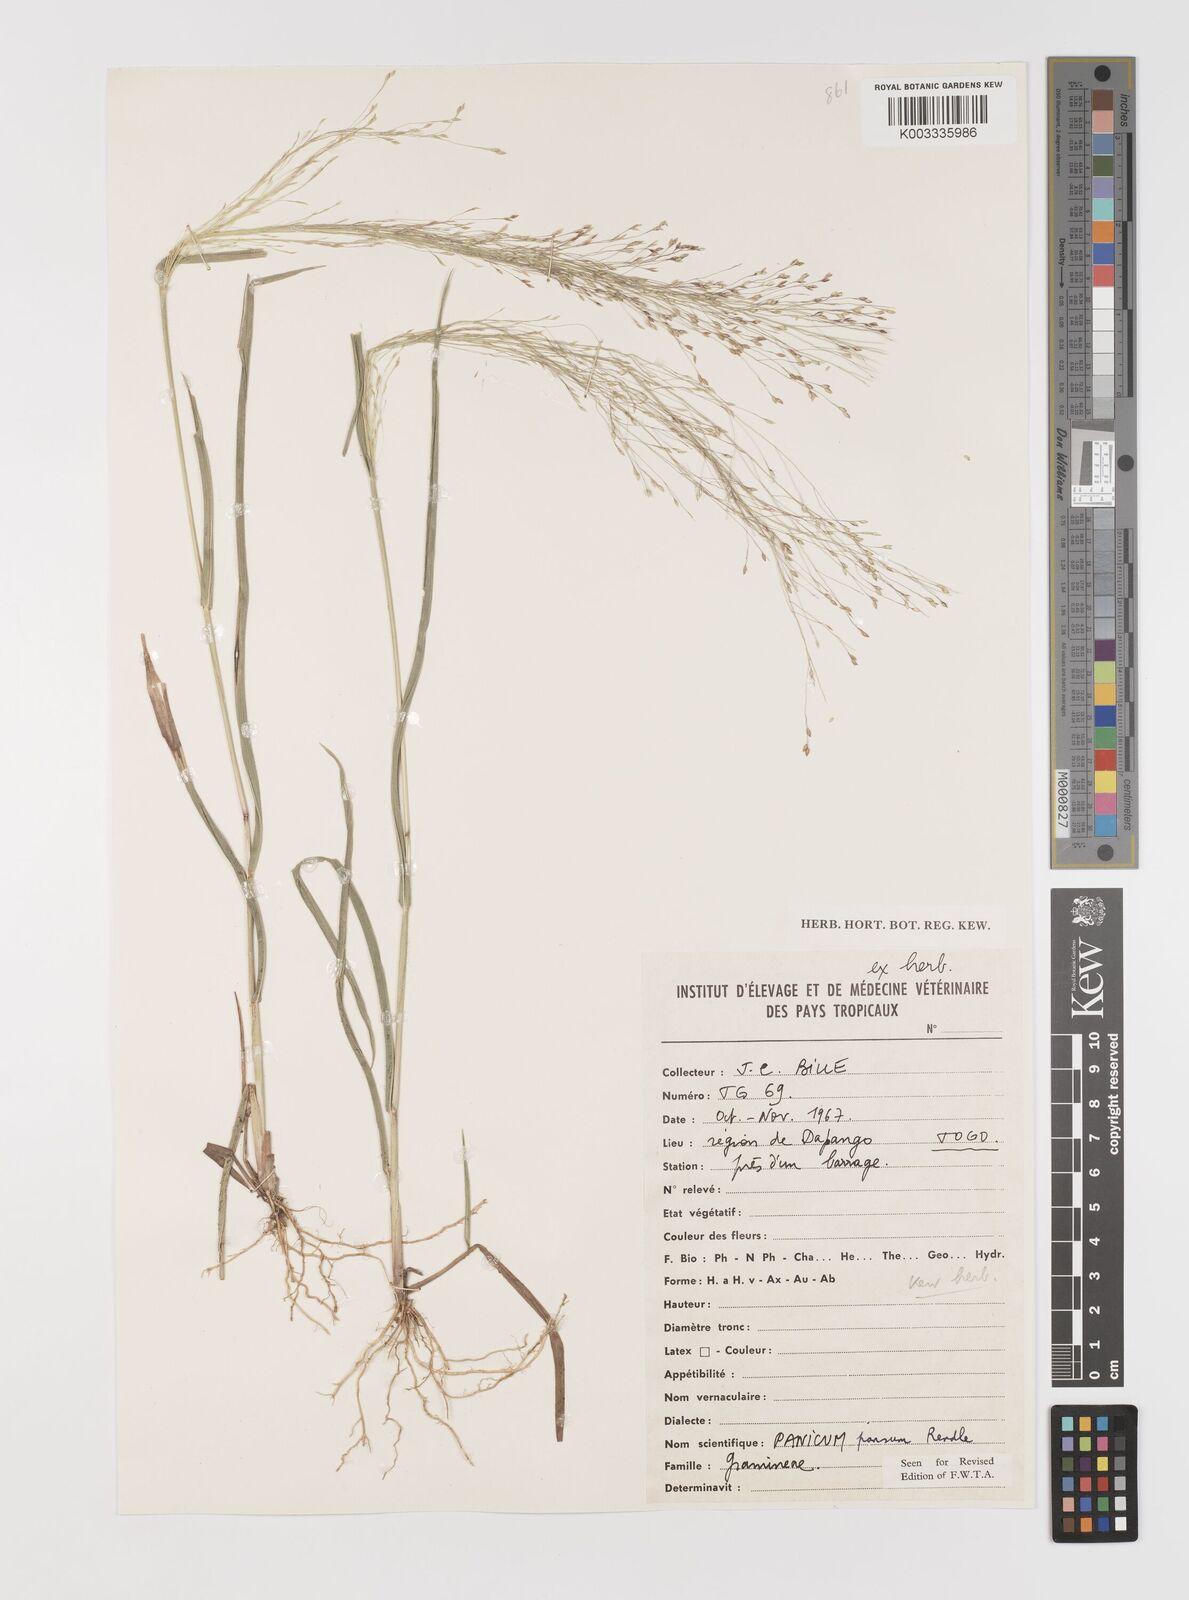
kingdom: Plantae
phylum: Tracheophyta
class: Liliopsida
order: Poales
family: Poaceae
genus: Panicum
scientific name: Panicum pansum
